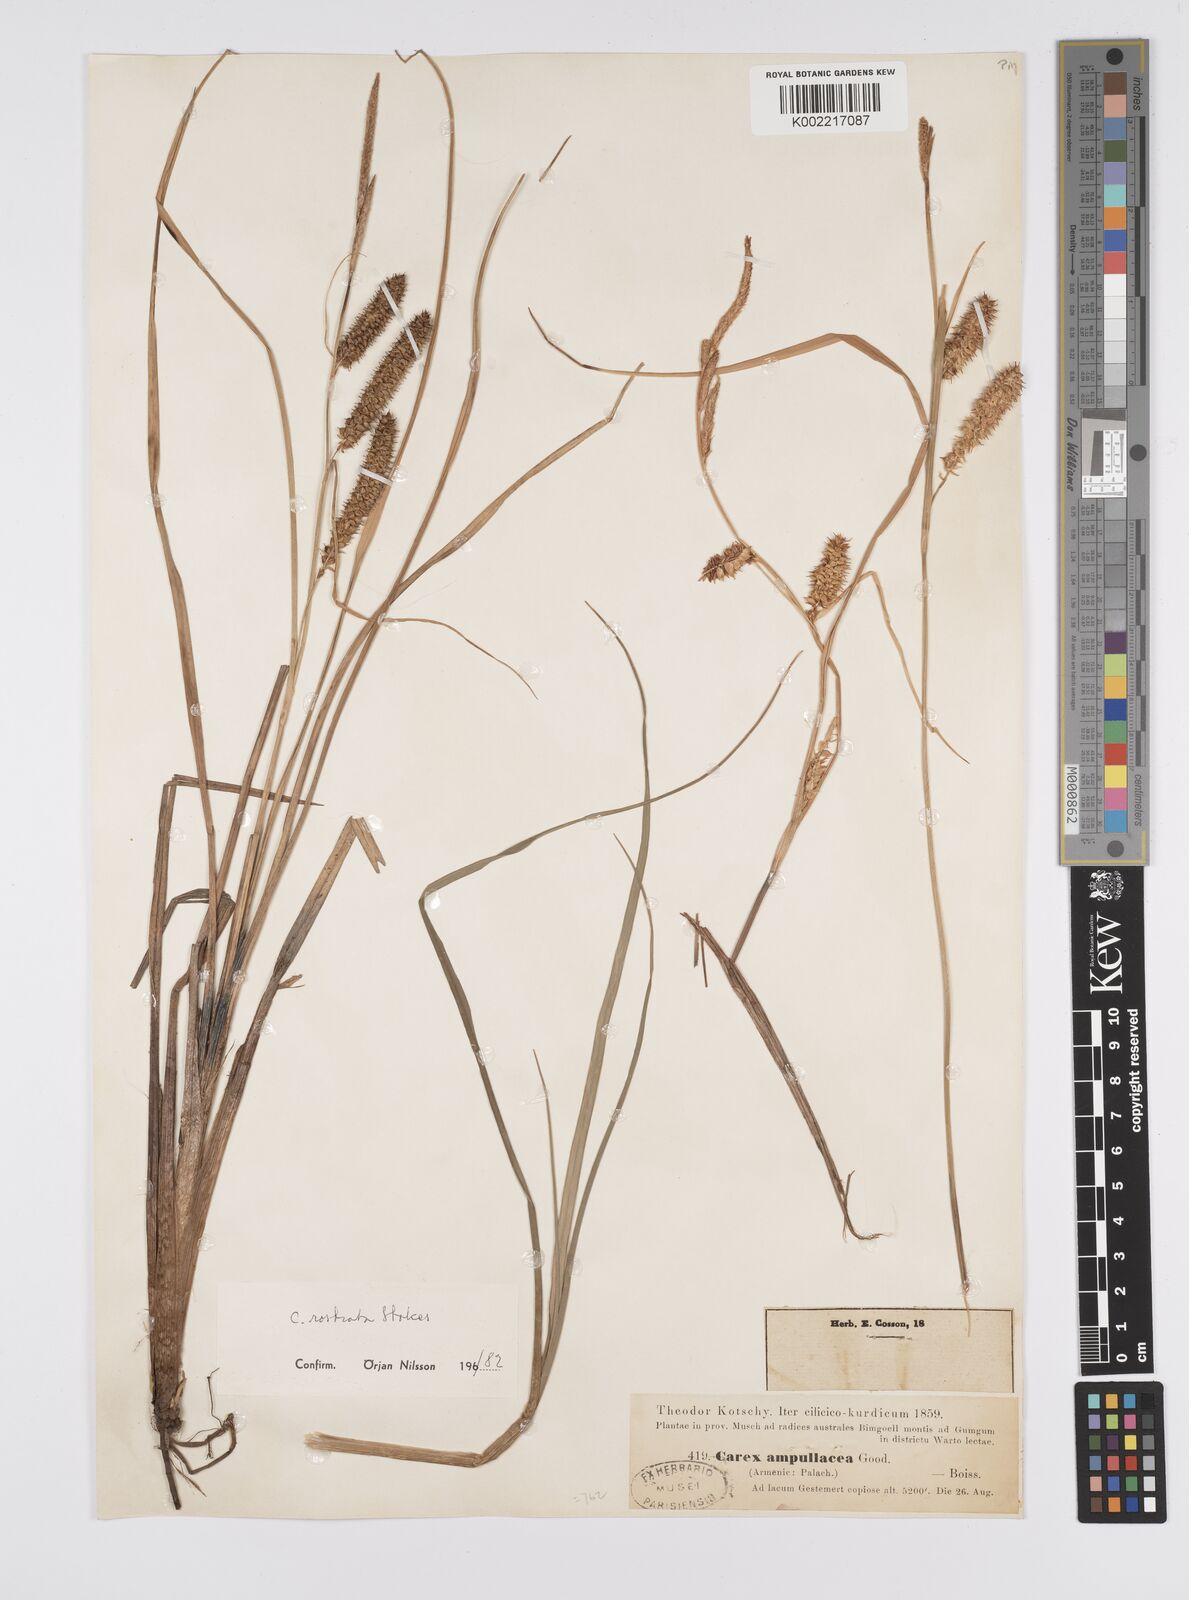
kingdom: Plantae
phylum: Tracheophyta
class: Liliopsida
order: Poales
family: Cyperaceae
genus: Carex
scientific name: Carex rostrata
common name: Bottle sedge
